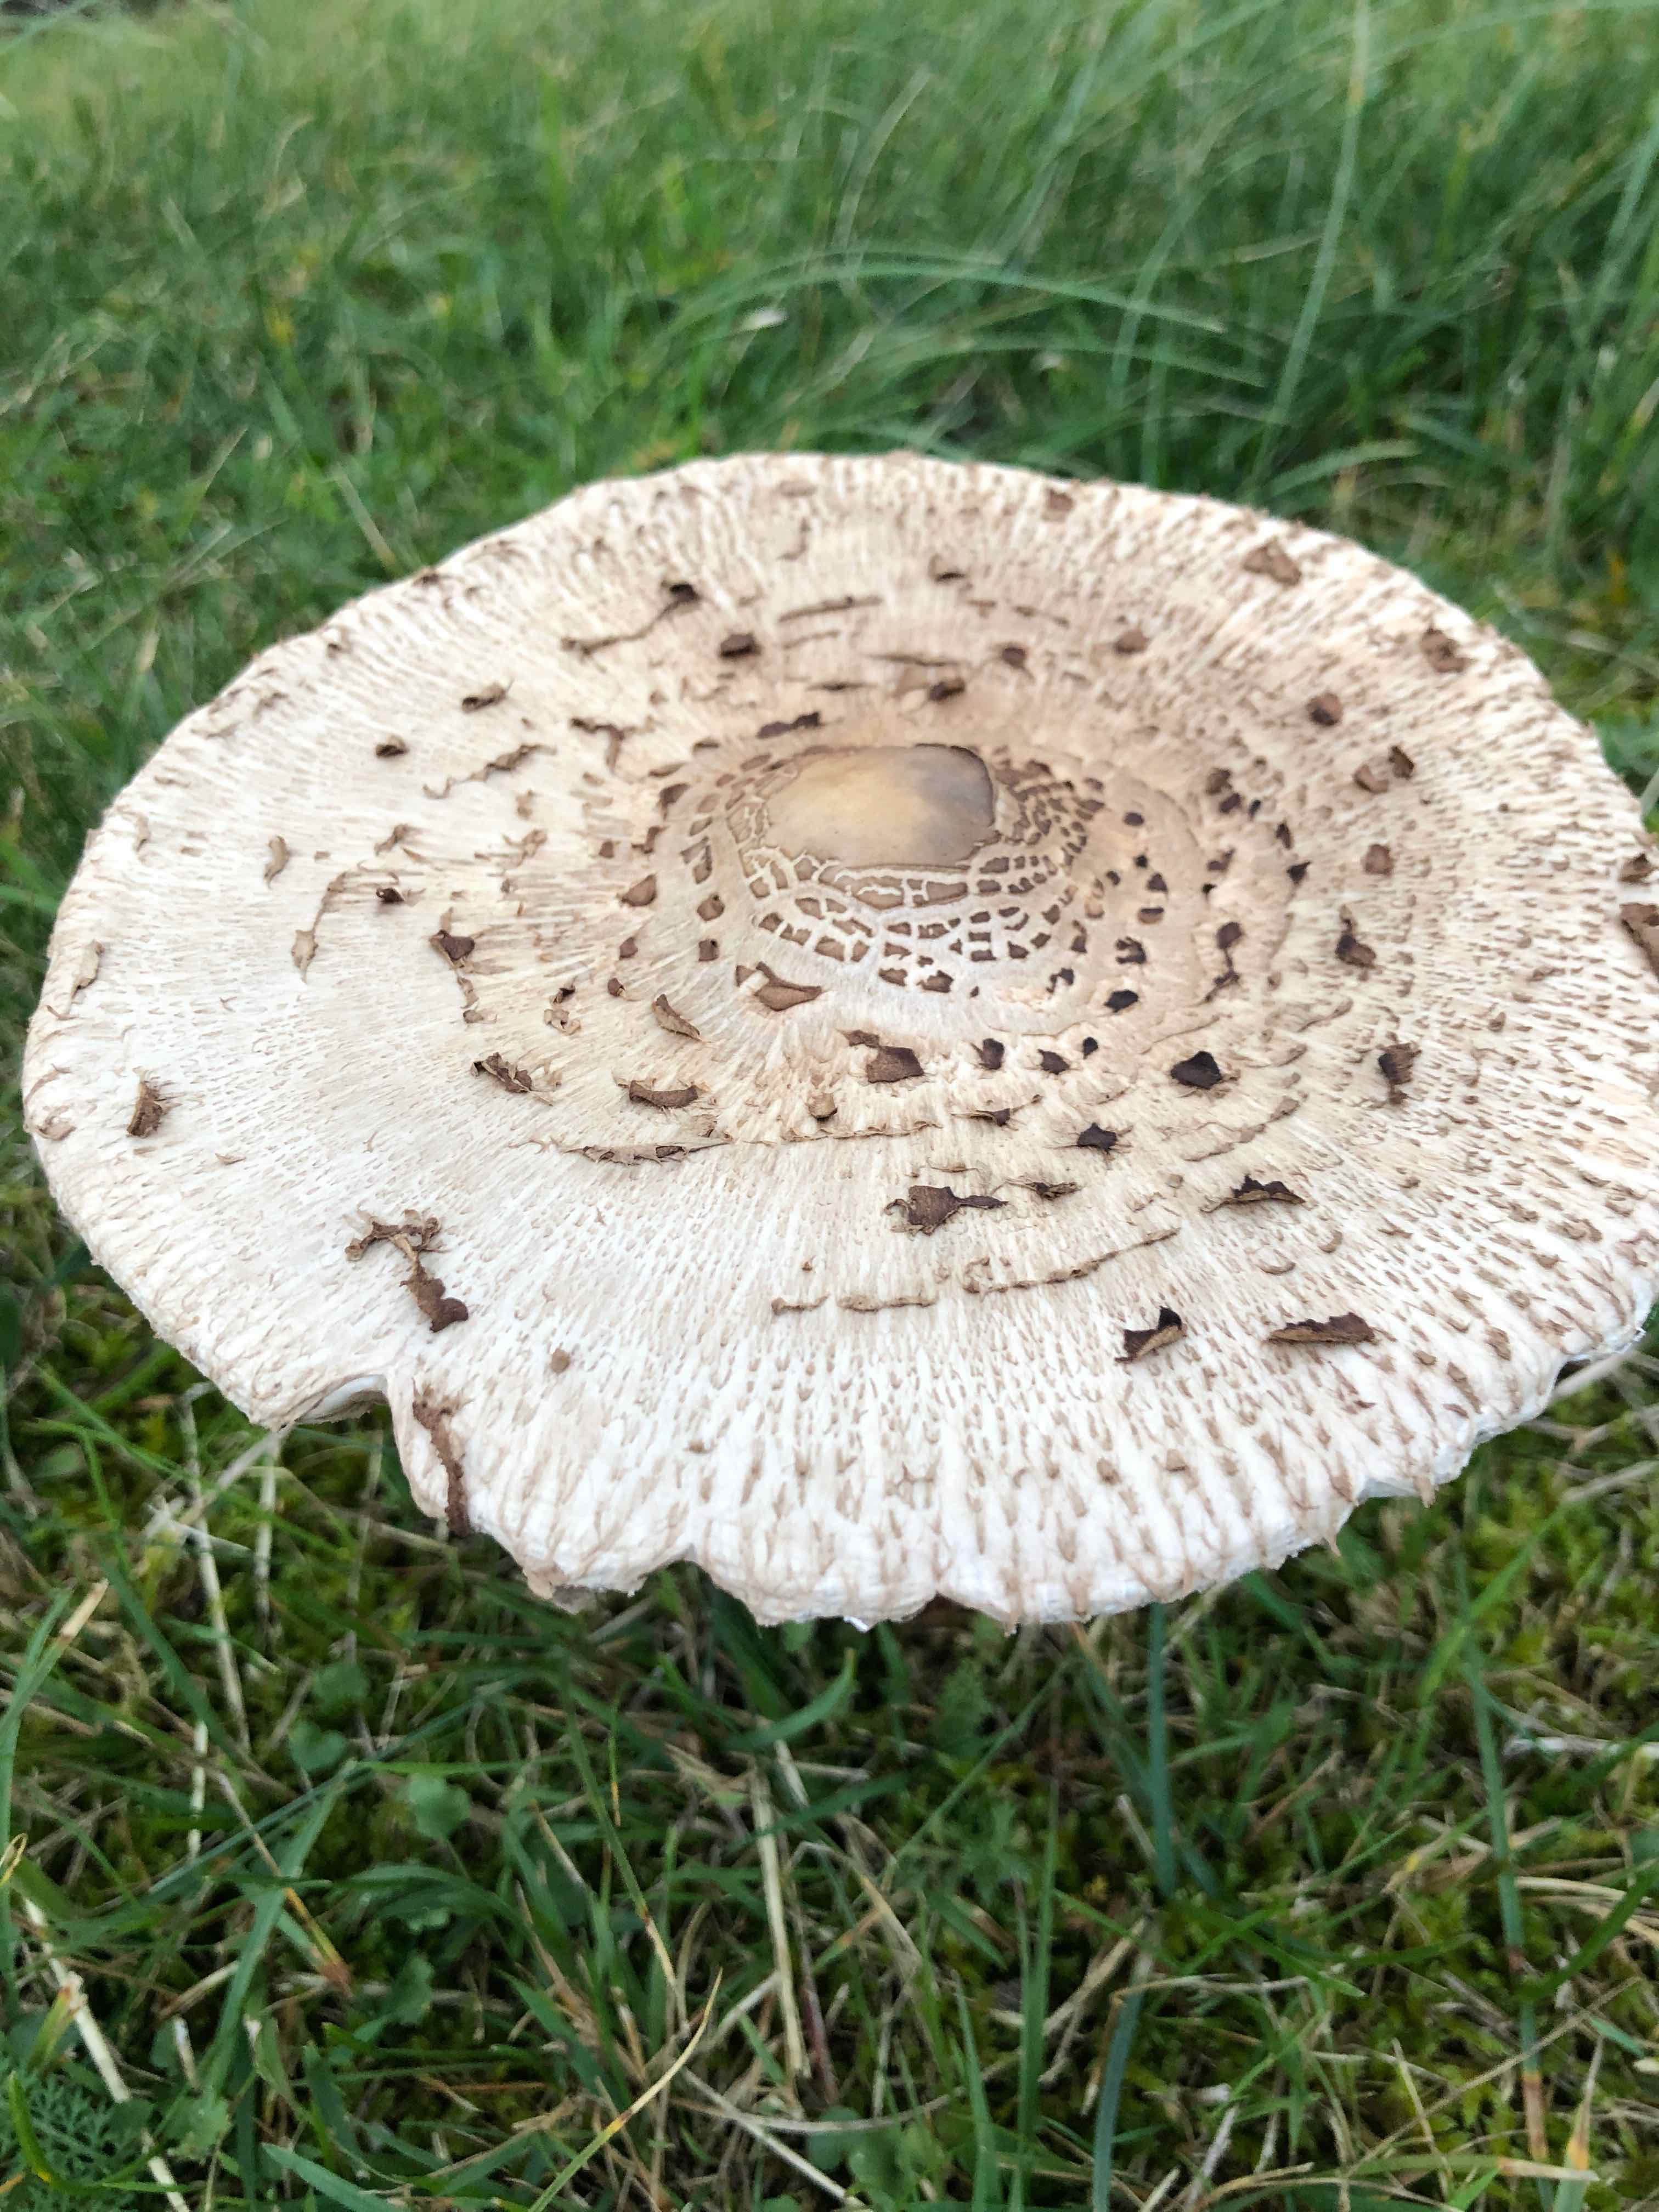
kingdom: Fungi
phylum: Basidiomycota
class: Agaricomycetes
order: Agaricales
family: Agaricaceae
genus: Macrolepiota
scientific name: Macrolepiota procera
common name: stor kæmpeparasolhat
